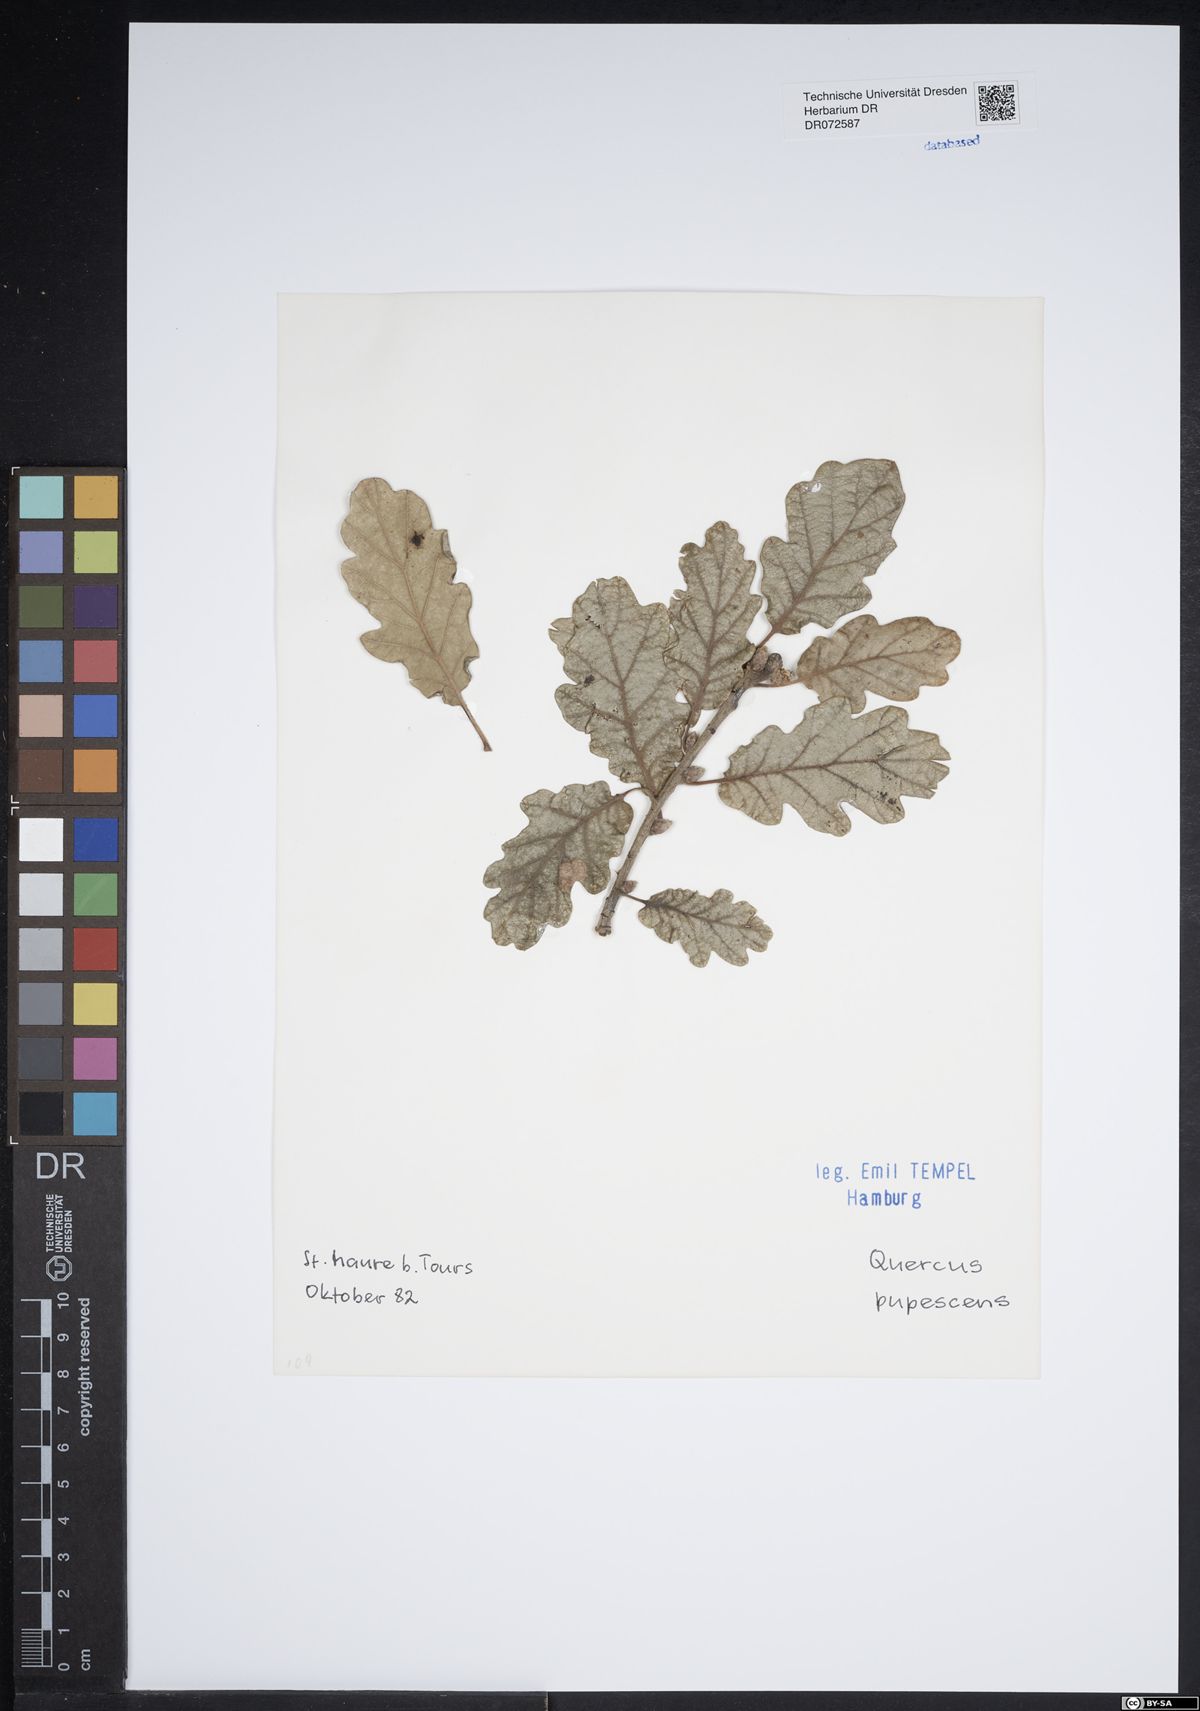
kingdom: Plantae
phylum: Tracheophyta
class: Magnoliopsida
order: Fagales
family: Fagaceae
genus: Quercus
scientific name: Quercus pubescens
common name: Downy oak
